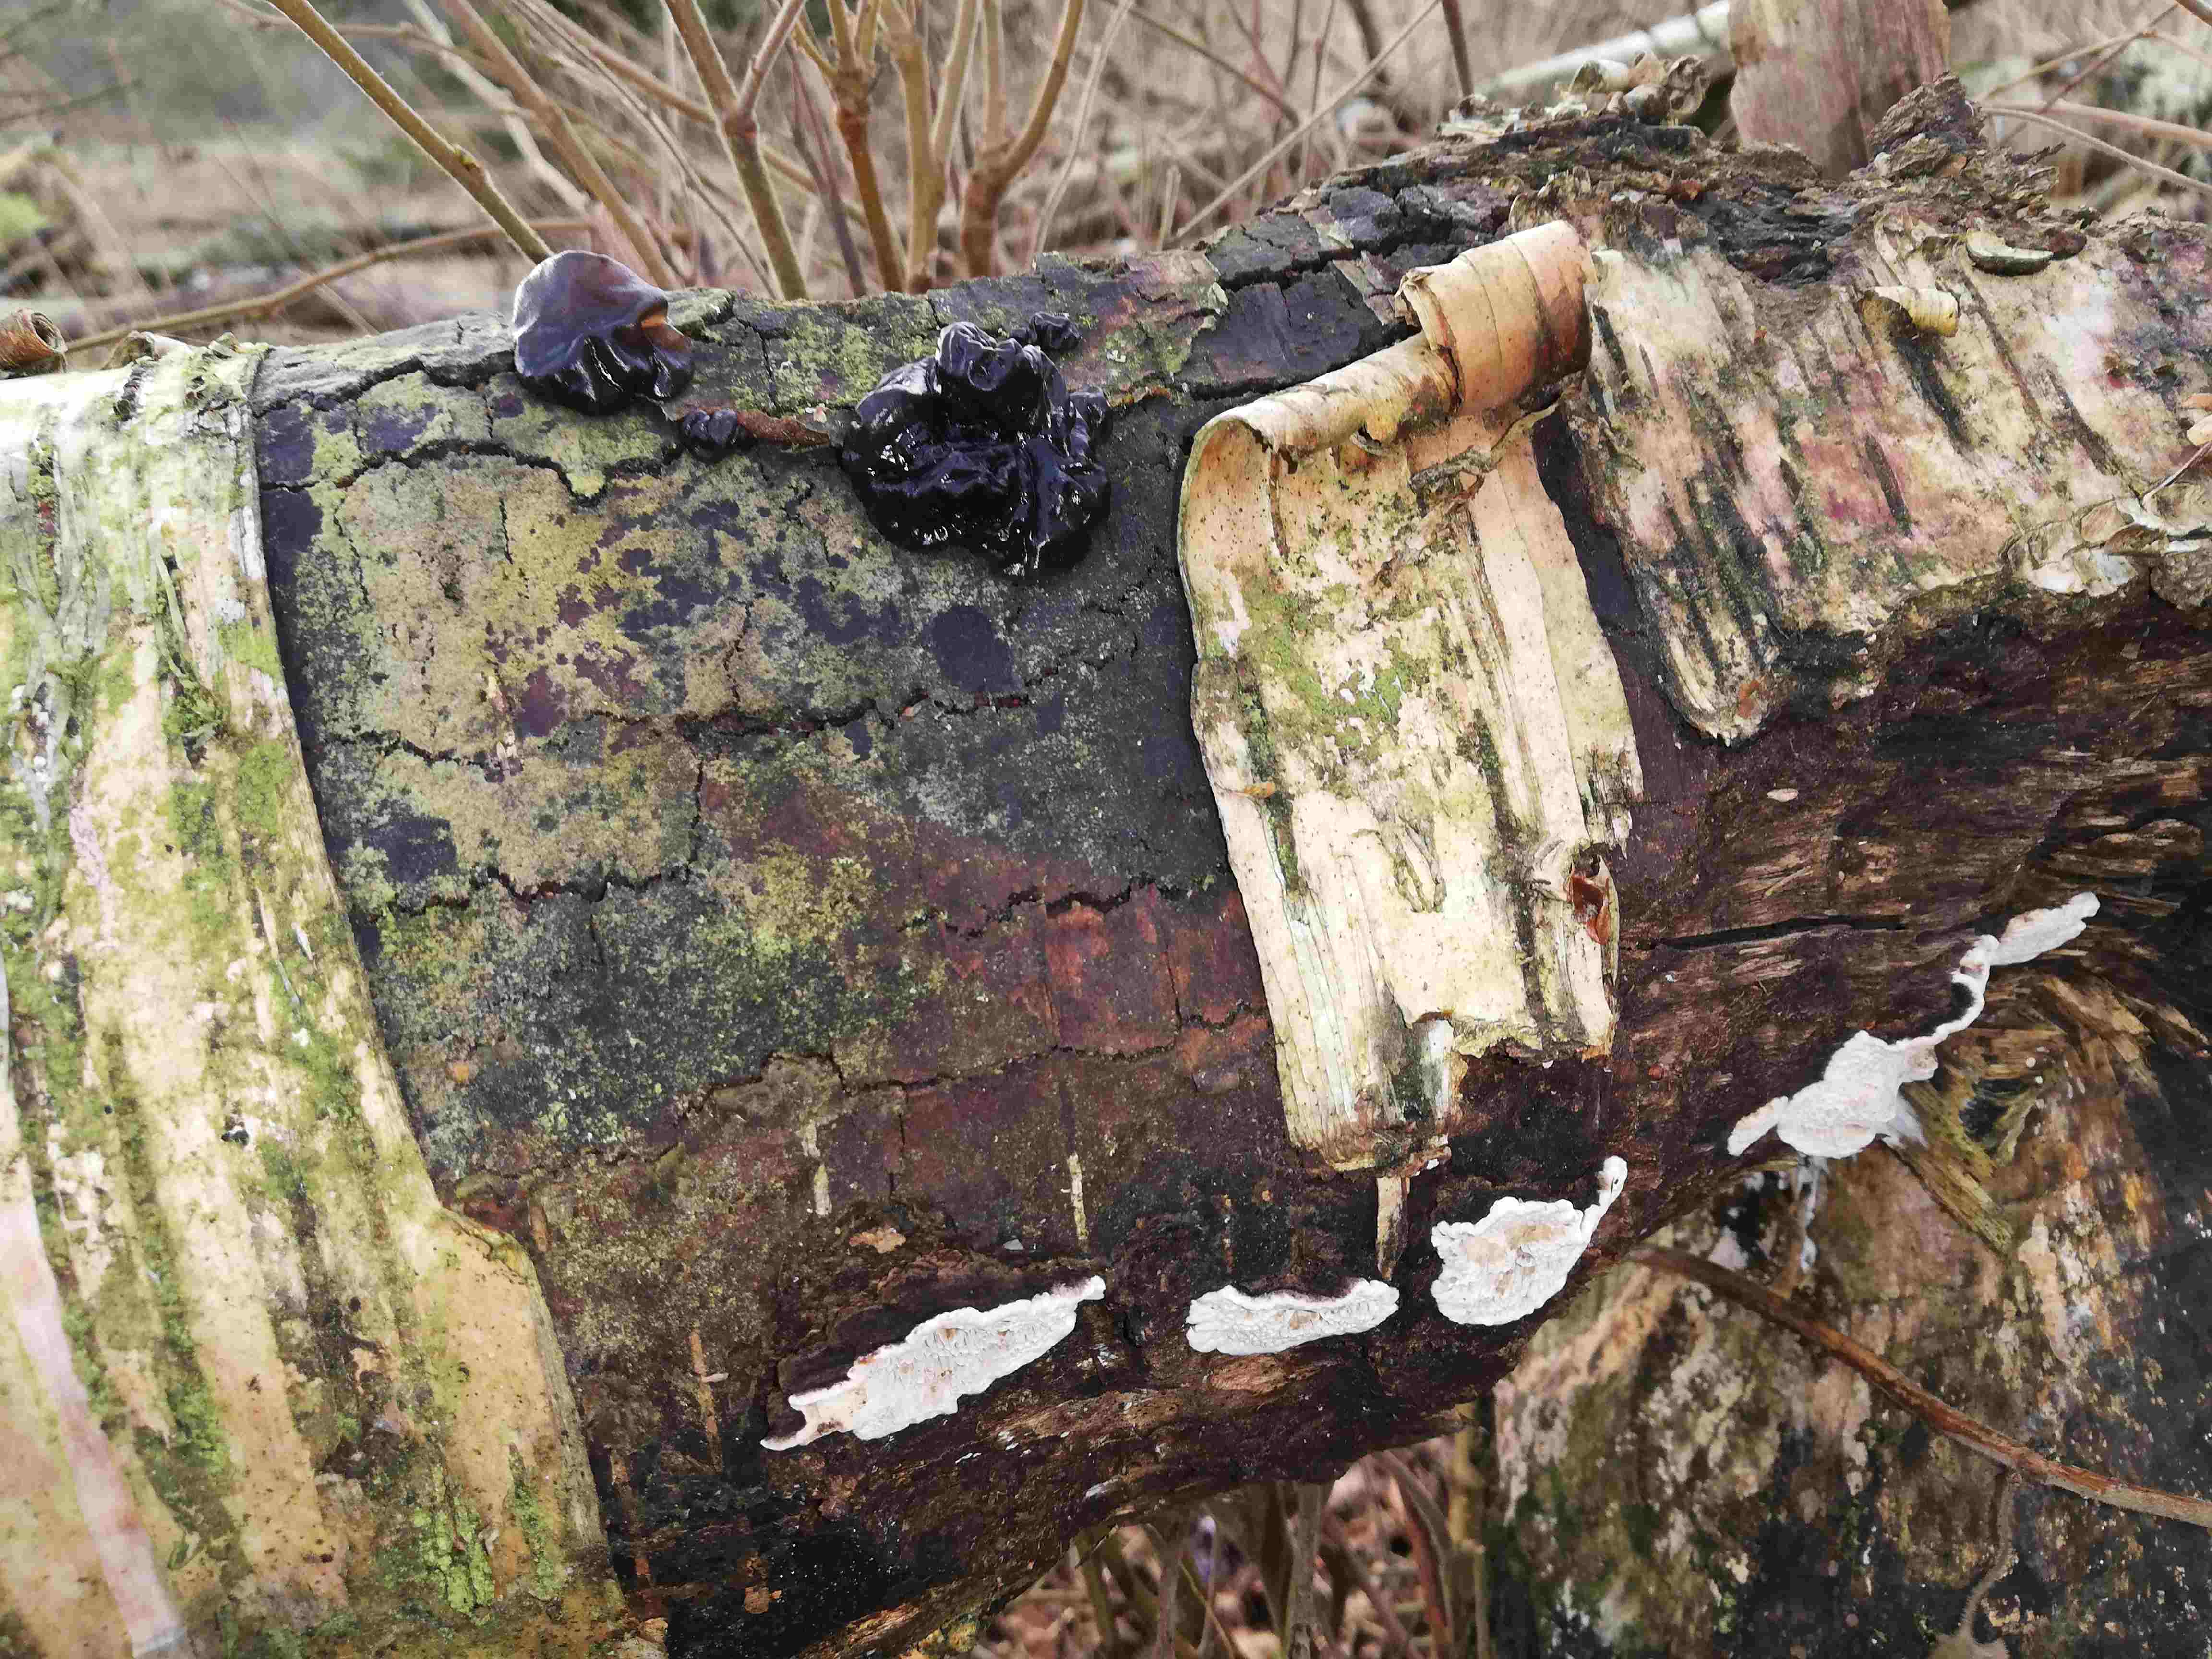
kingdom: Fungi
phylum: Basidiomycota
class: Agaricomycetes
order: Polyporales
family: Polyporaceae
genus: Podofomes
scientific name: Podofomes mollis
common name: blød begporesvamp
